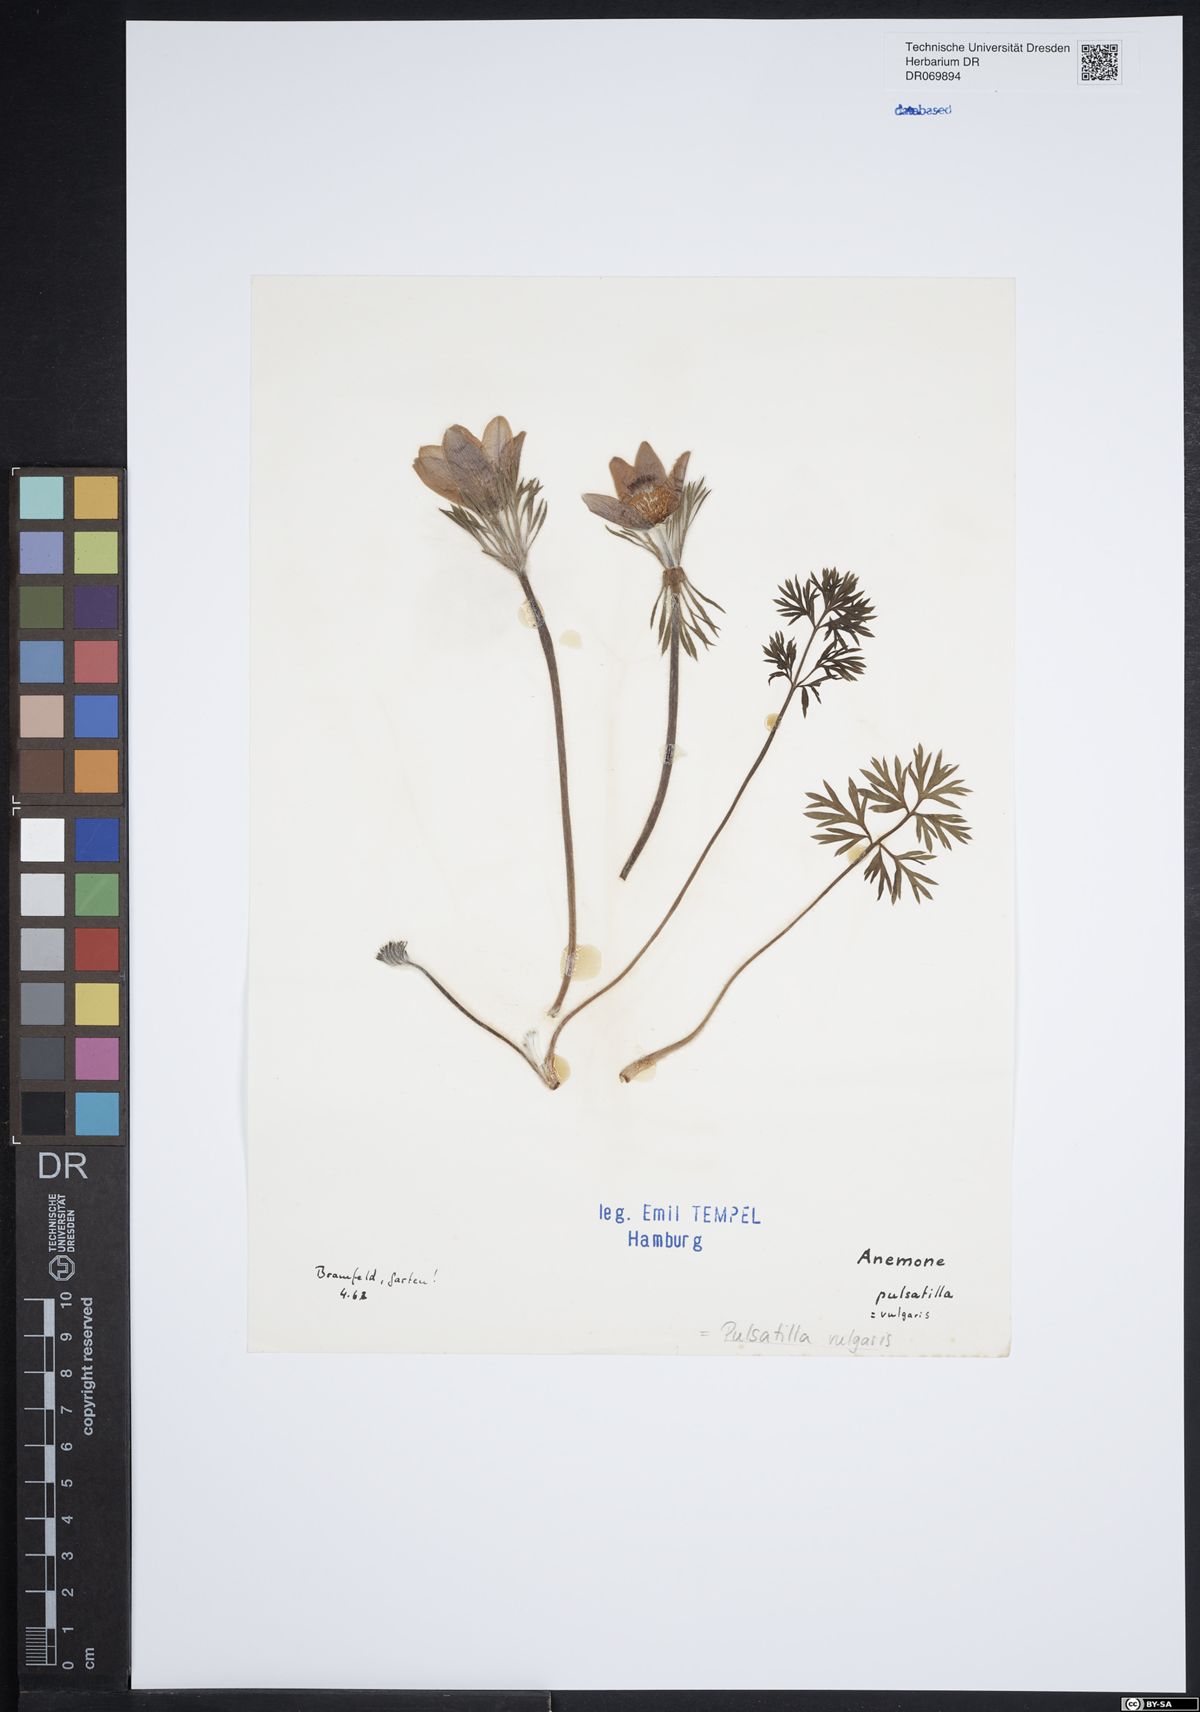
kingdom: Plantae
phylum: Tracheophyta
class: Magnoliopsida
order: Ranunculales
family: Ranunculaceae
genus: Pulsatilla
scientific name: Pulsatilla vulgaris
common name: Pasqueflower
